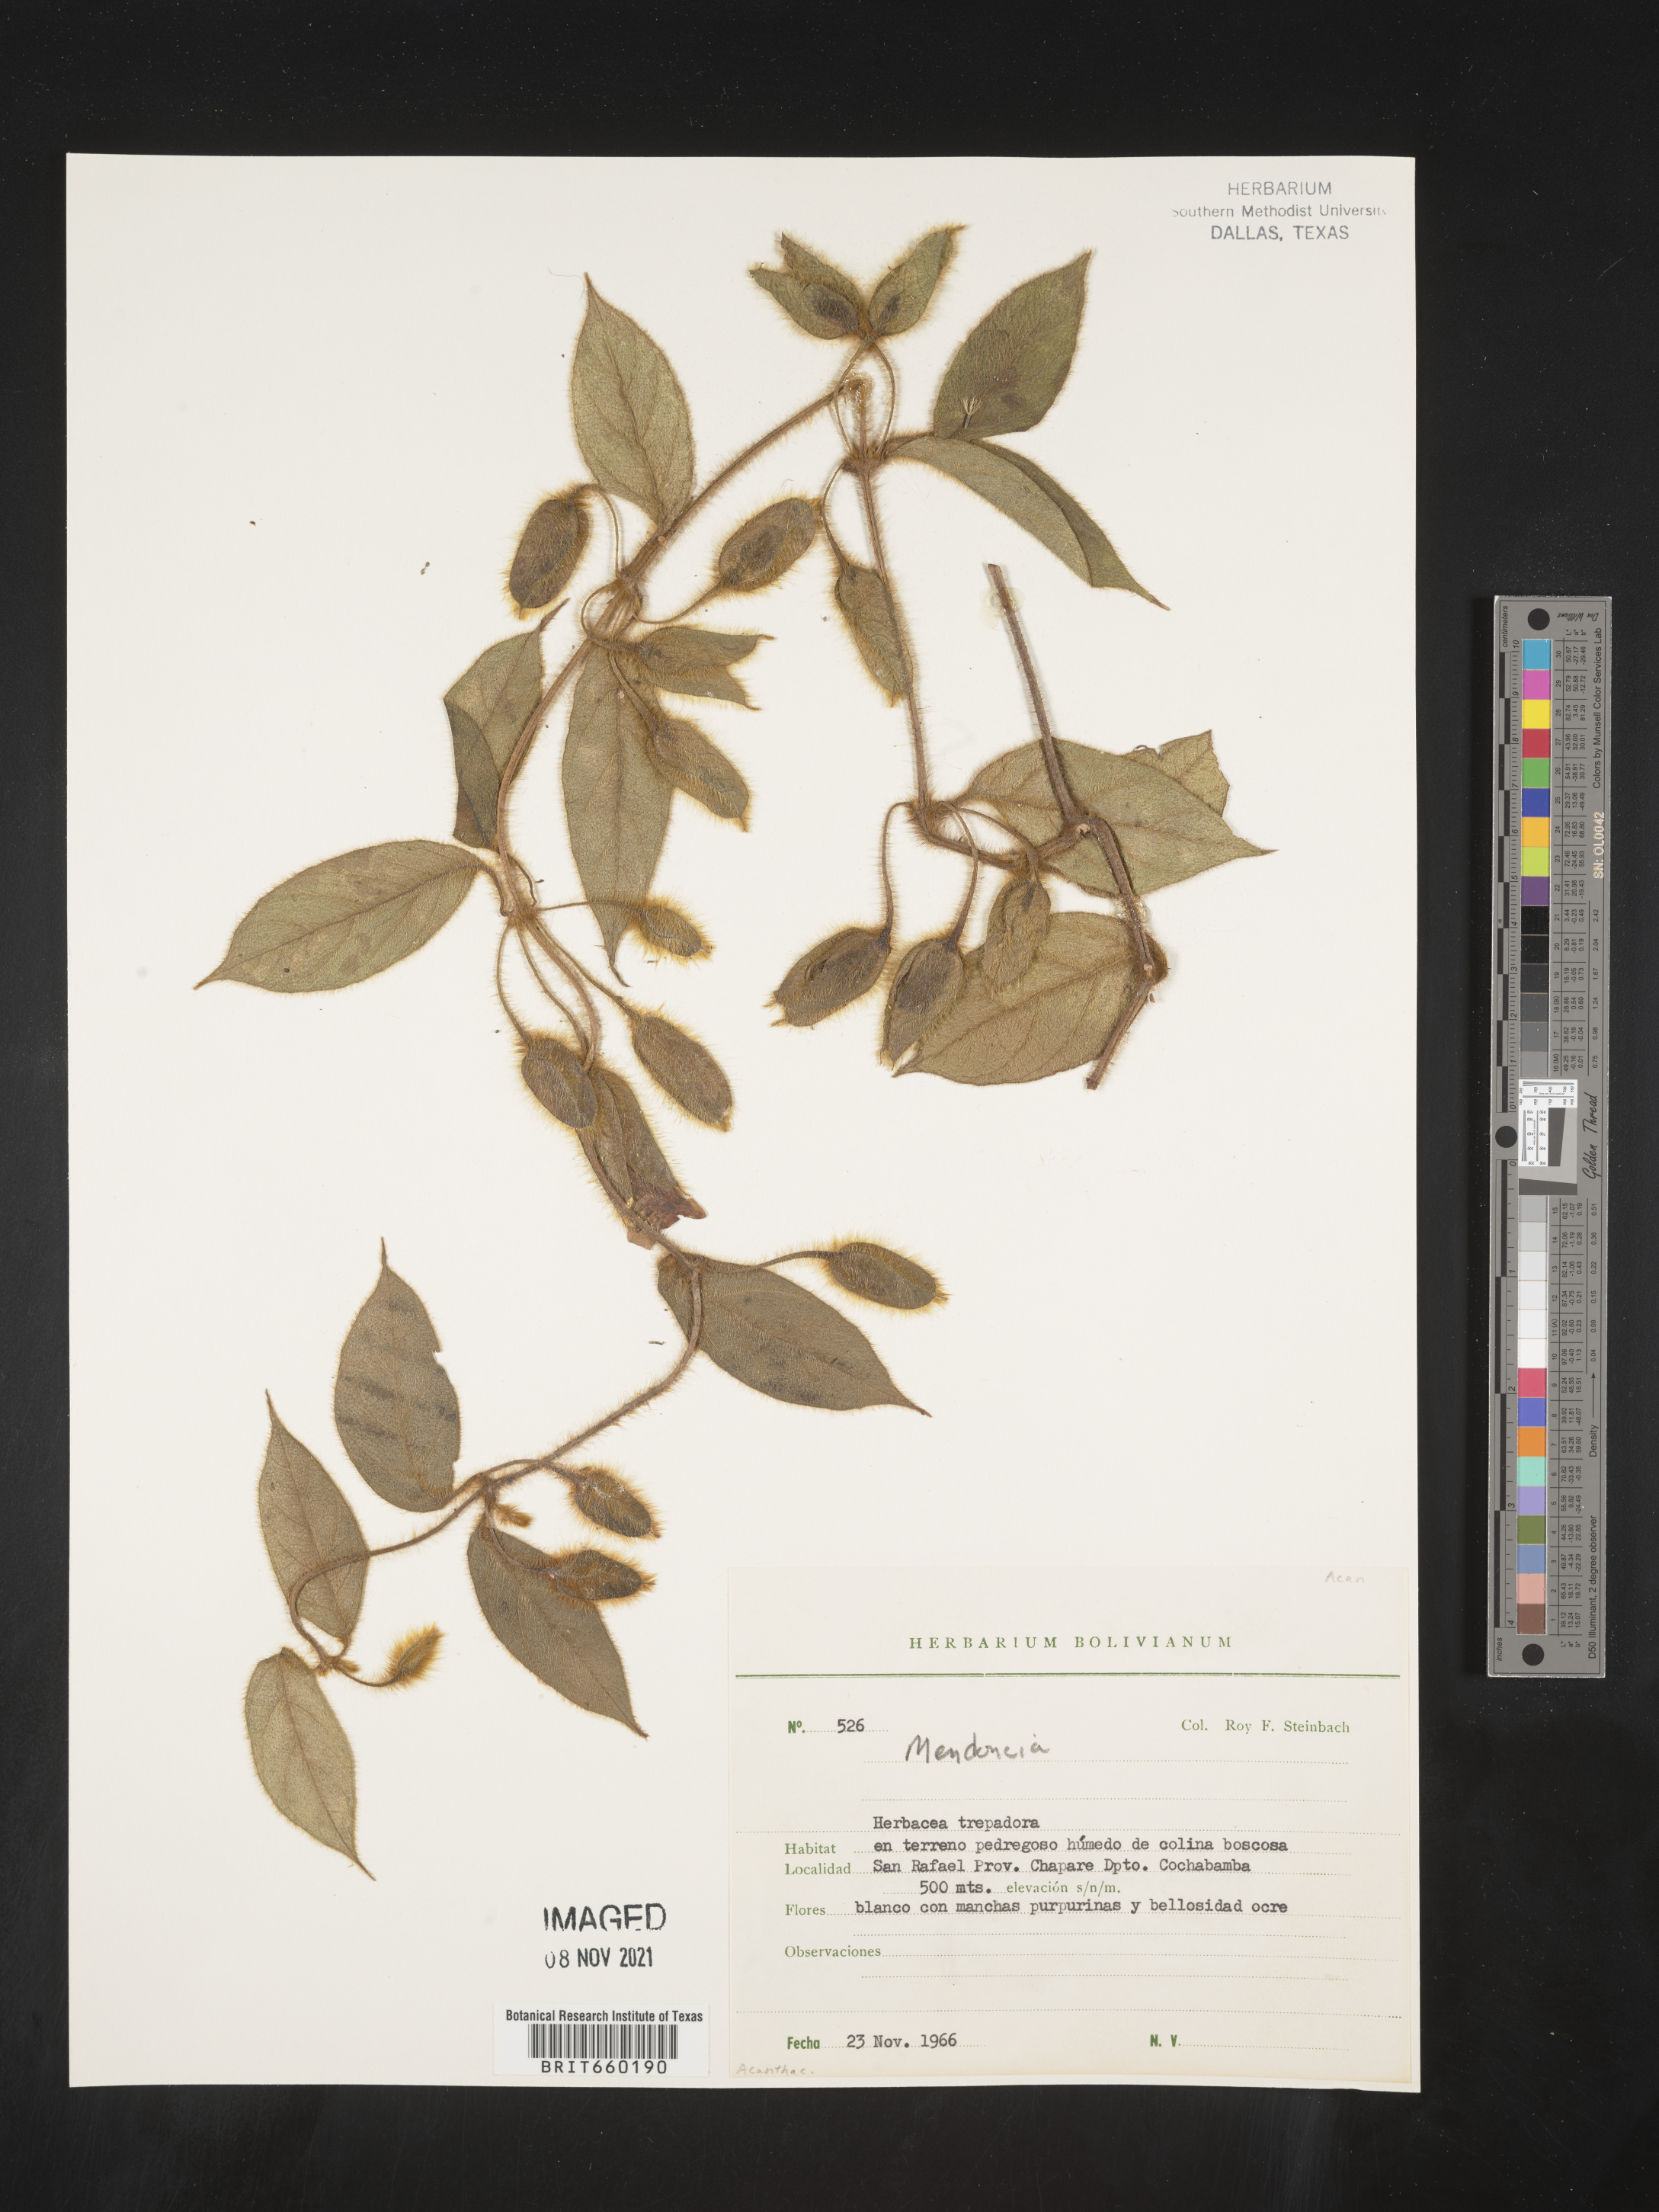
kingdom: Plantae
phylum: Tracheophyta
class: Magnoliopsida
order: Lamiales
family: Acanthaceae
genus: Mendoncia
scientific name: Mendoncia
